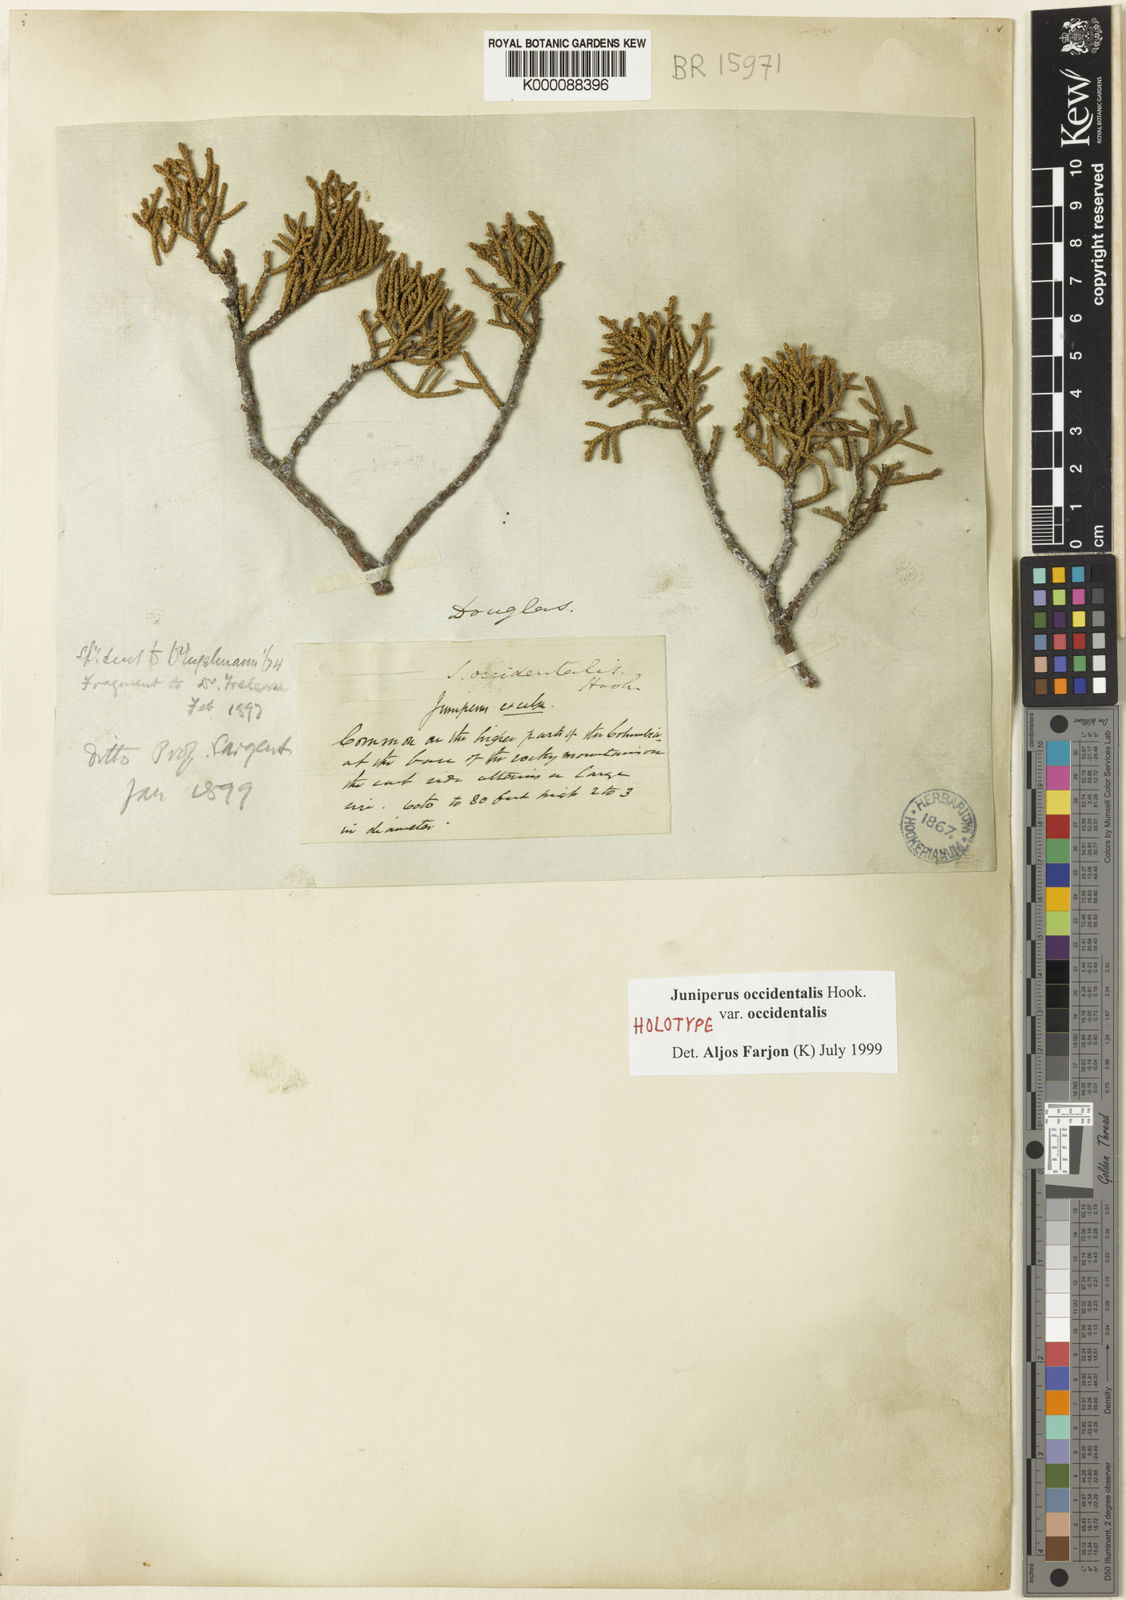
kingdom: Plantae
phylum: Tracheophyta
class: Pinopsida
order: Pinales
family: Cupressaceae
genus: Juniperus
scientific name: Juniperus occidentalis
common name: Western juniper
